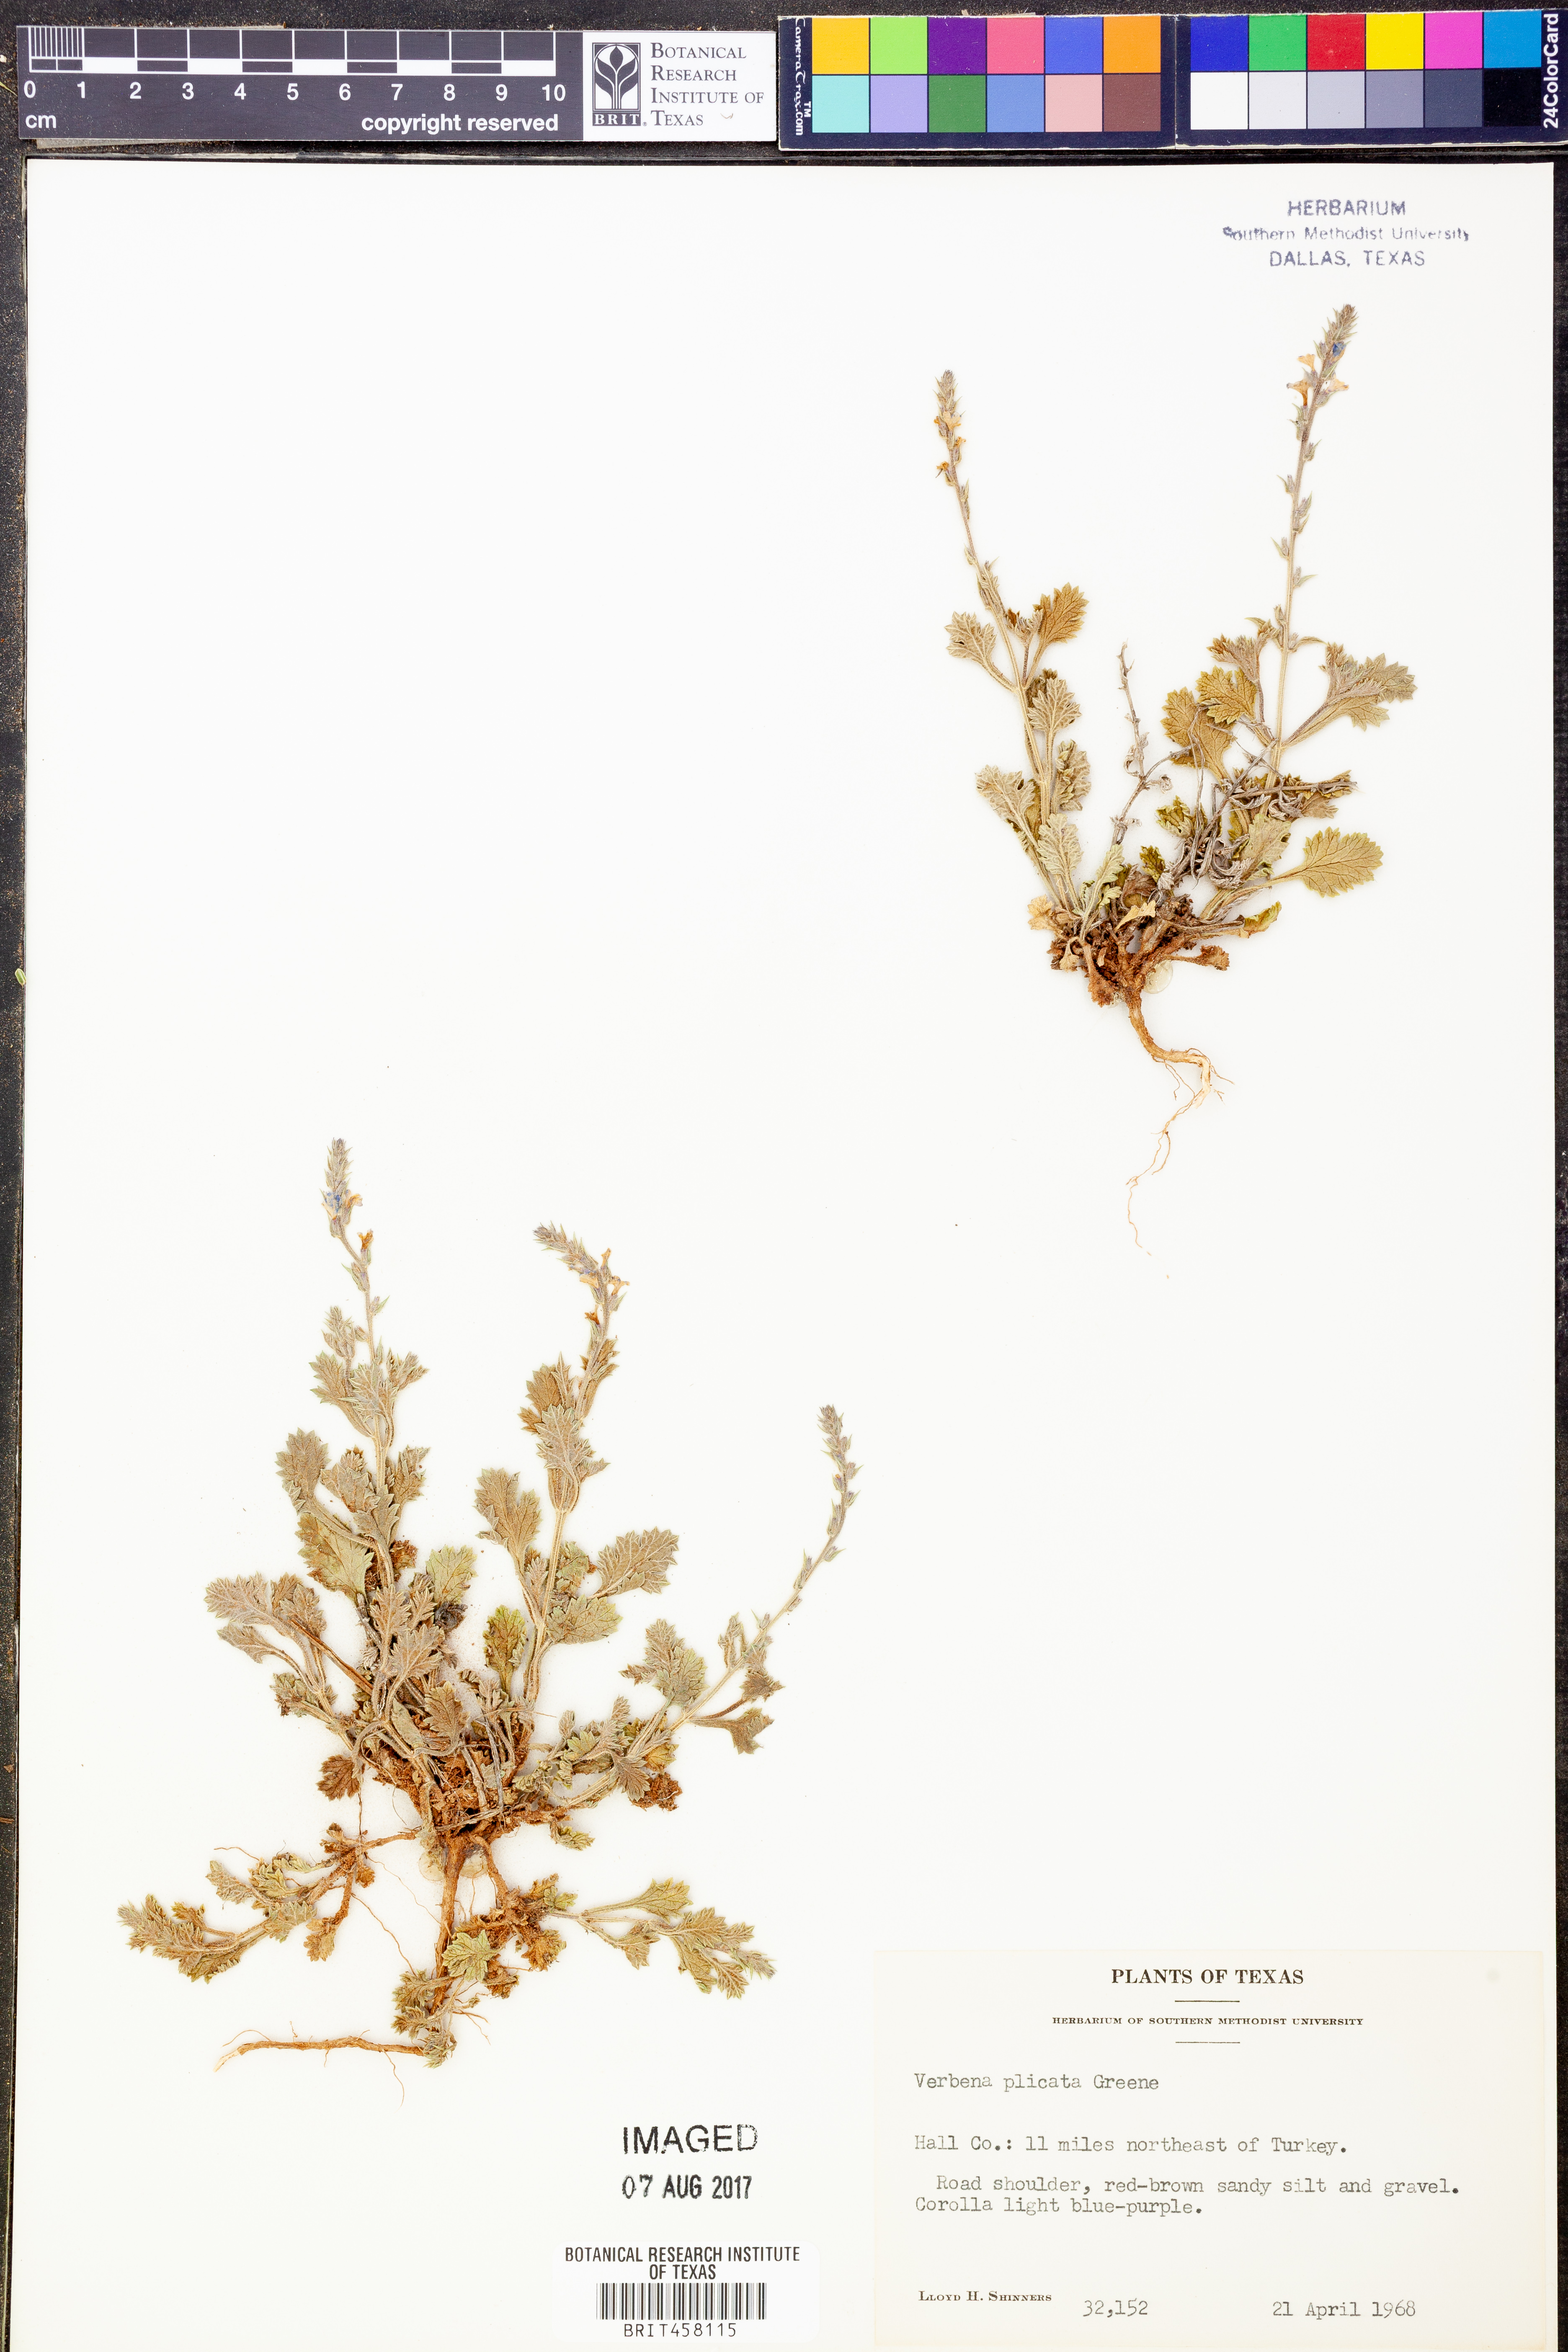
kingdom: Plantae
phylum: Tracheophyta
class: Magnoliopsida
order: Lamiales
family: Verbenaceae
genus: Verbena
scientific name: Verbena plicata
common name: Fan-leaf vervain
